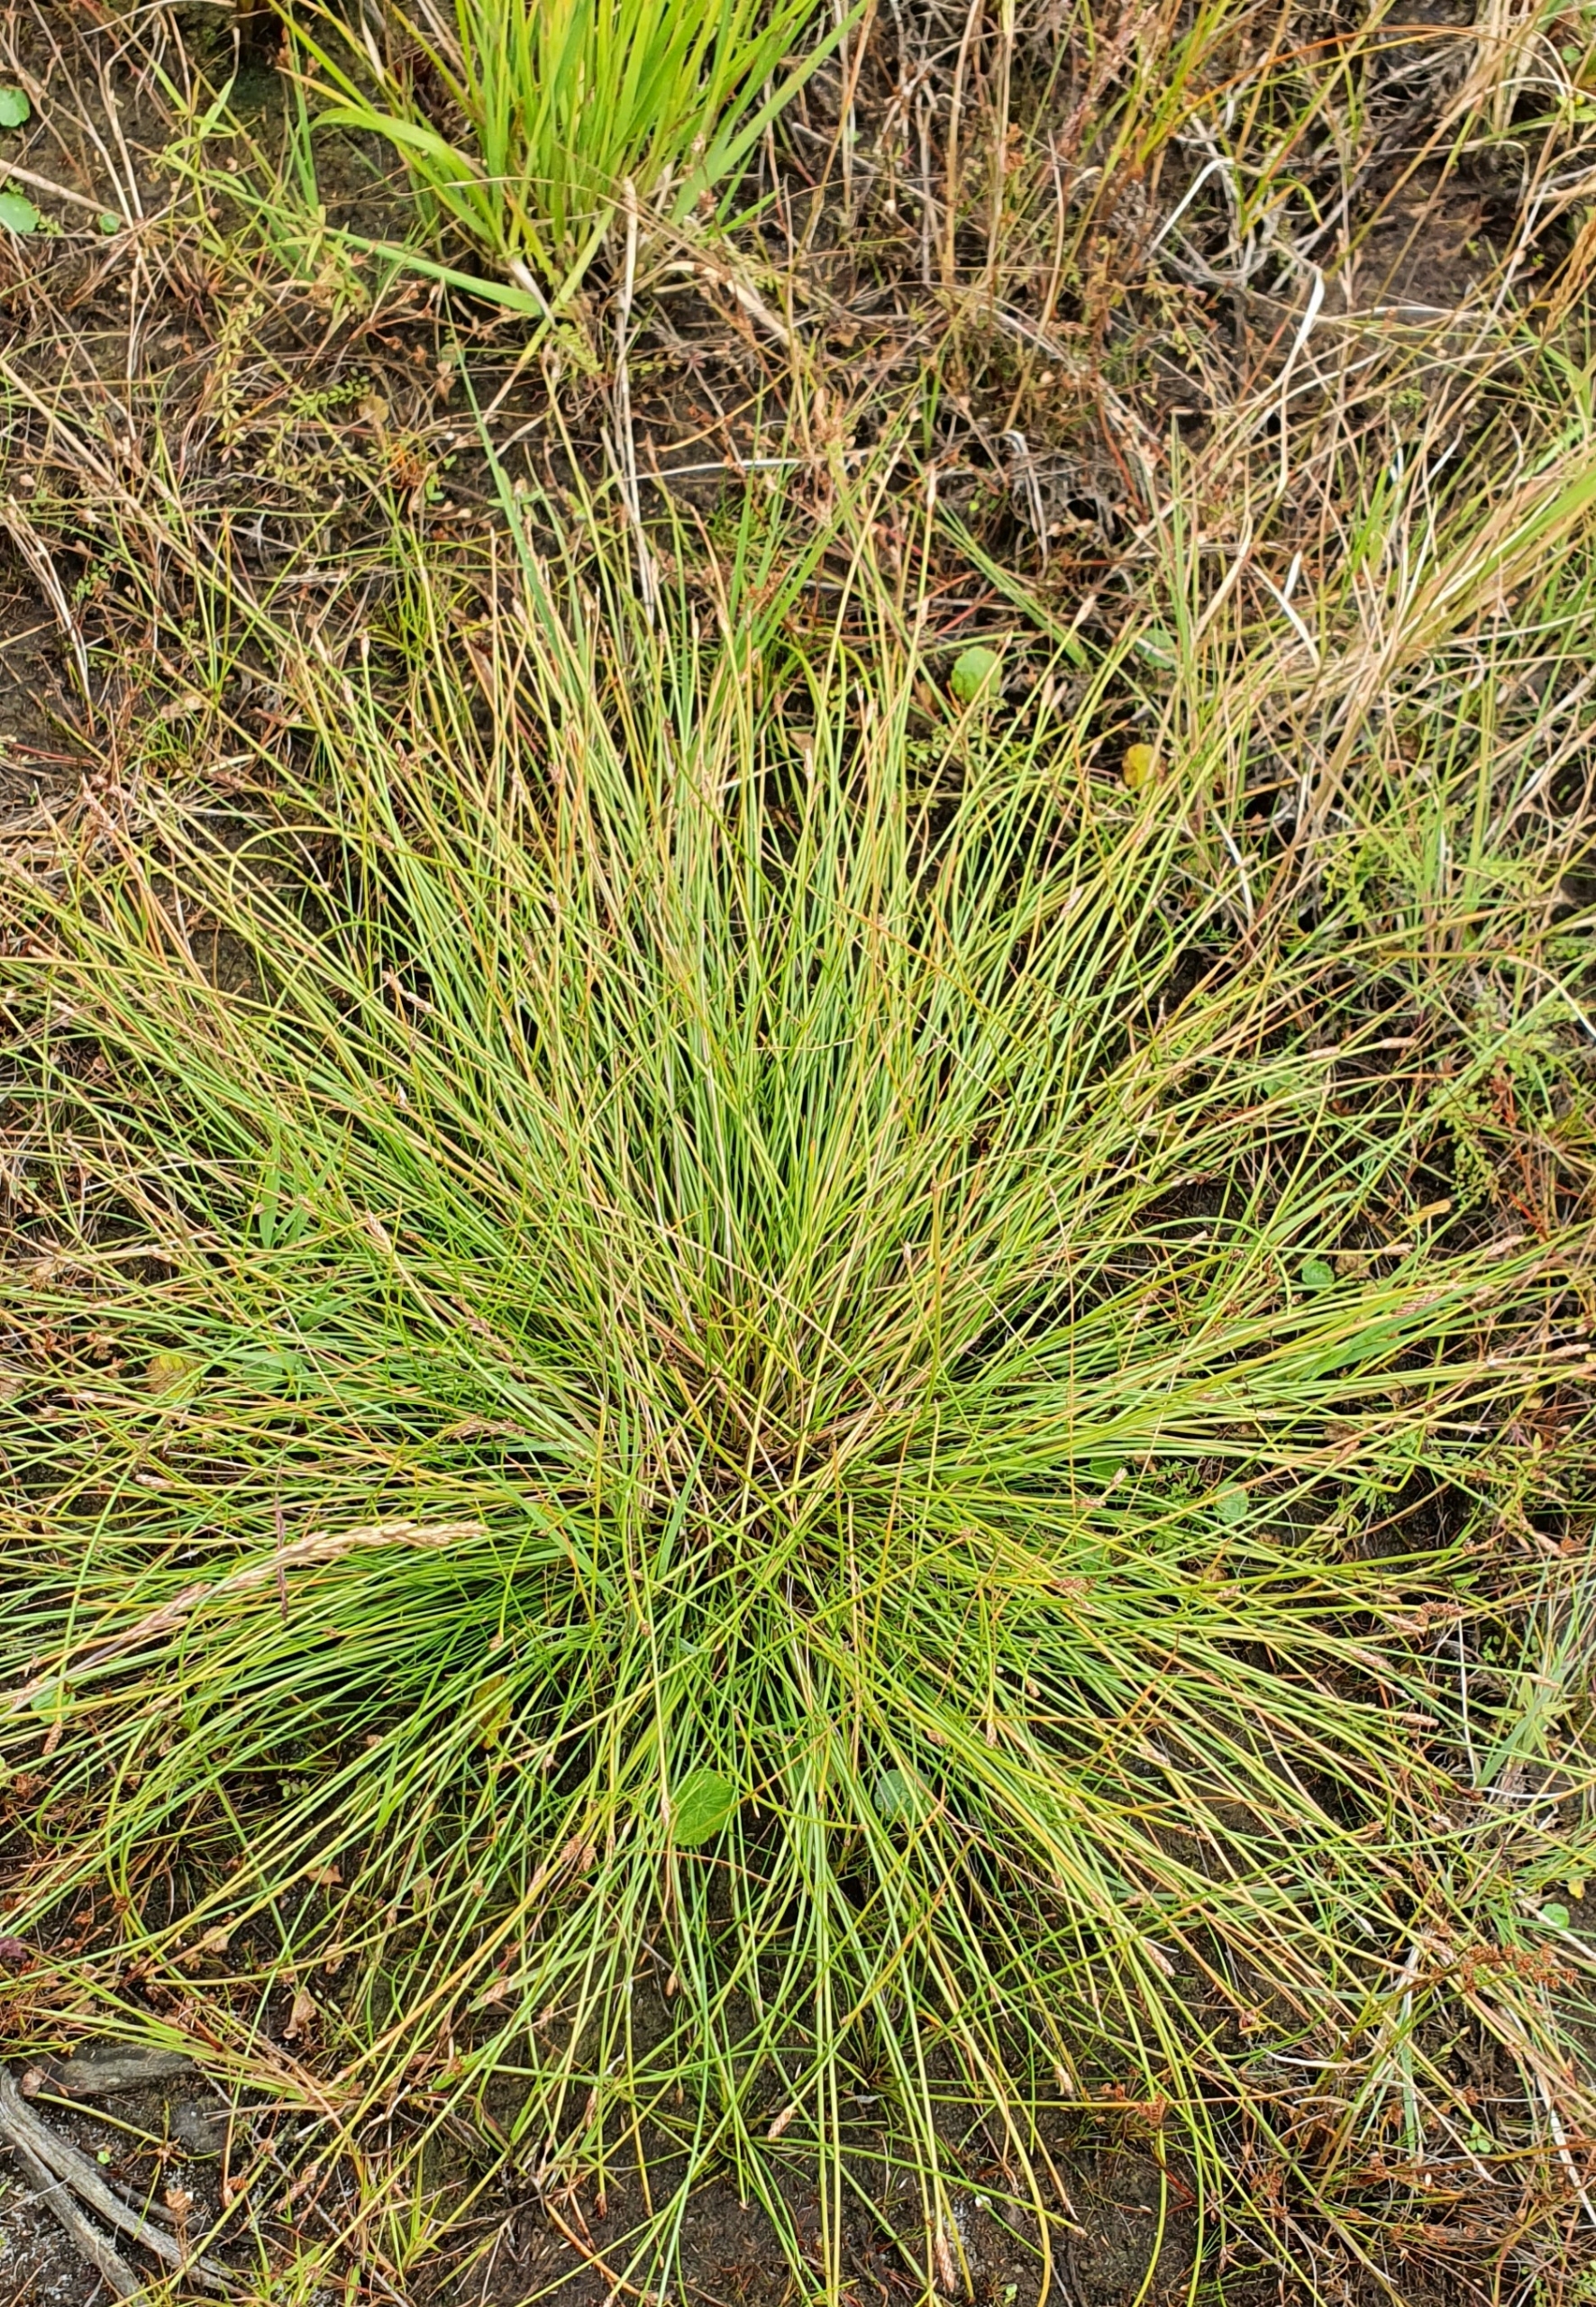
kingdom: Plantae
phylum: Tracheophyta
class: Liliopsida
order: Poales
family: Cyperaceae
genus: Trichophorum
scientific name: Trichophorum cespitosum
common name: Tuekogleaks
